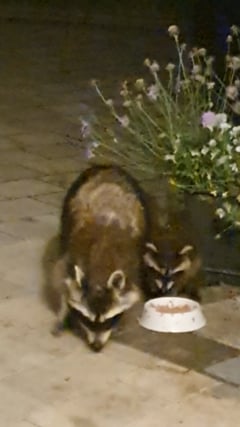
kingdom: Animalia
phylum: Chordata
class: Mammalia
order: Carnivora
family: Procyonidae
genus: Procyon
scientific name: Procyon lotor
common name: Raccoon
